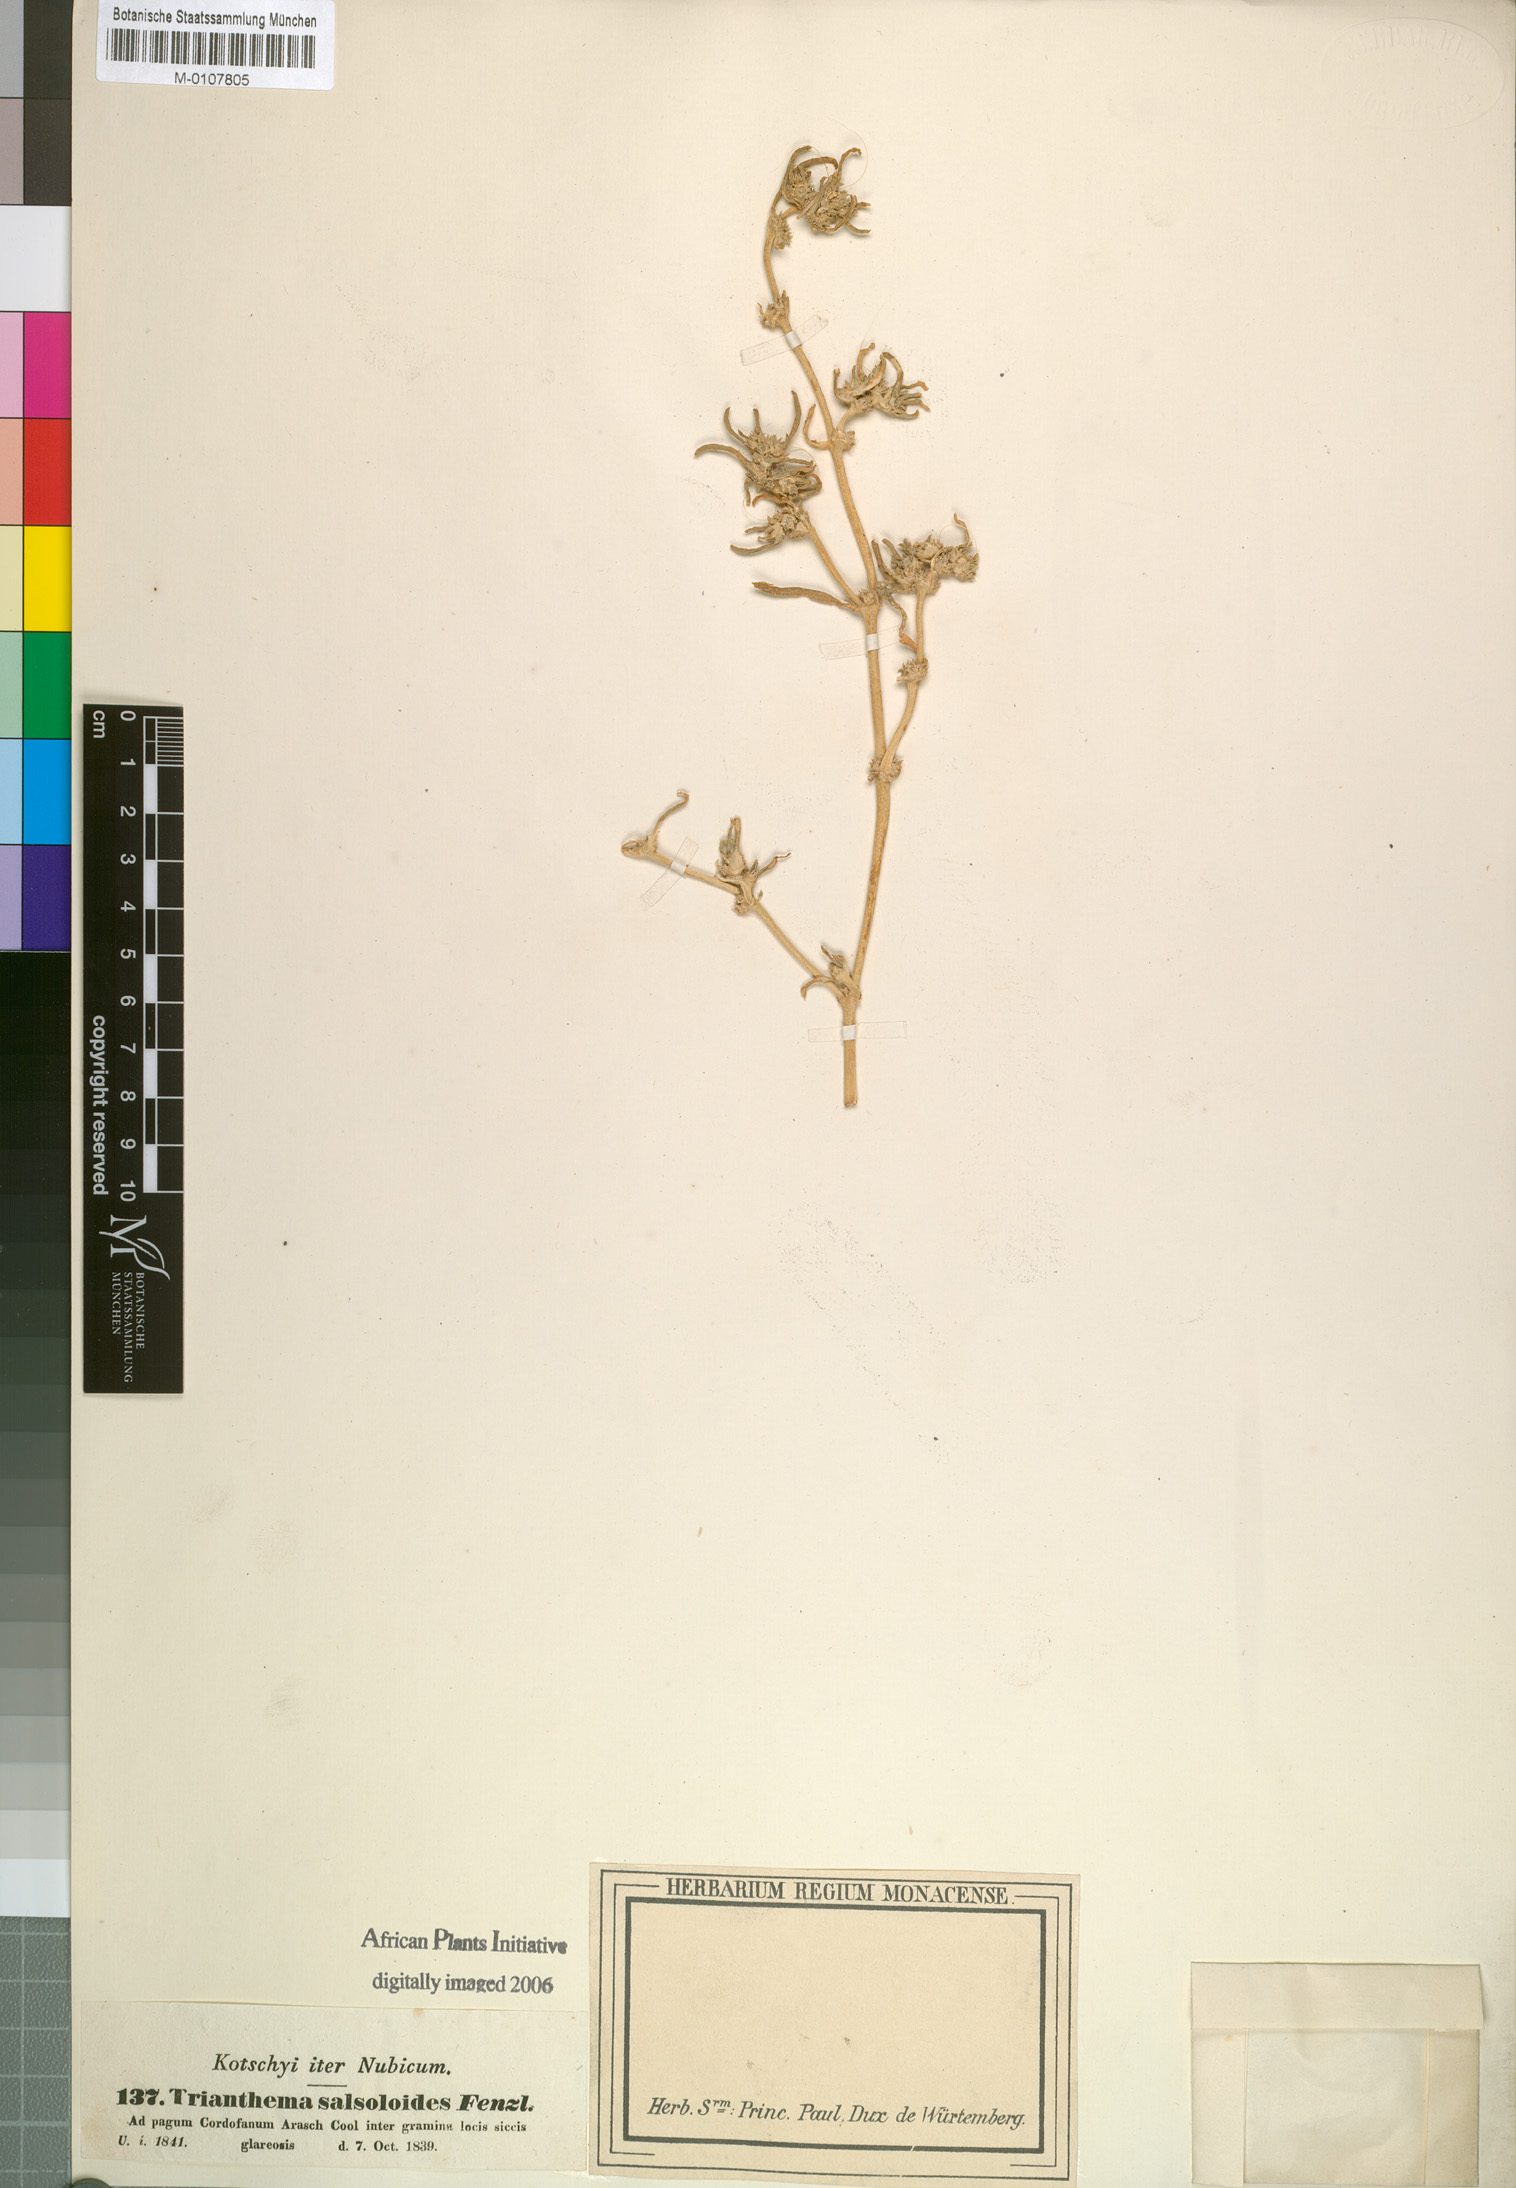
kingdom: Plantae
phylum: Tracheophyta
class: Magnoliopsida
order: Caryophyllales
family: Aizoaceae
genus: Trianthema
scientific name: Trianthema salsoloides
